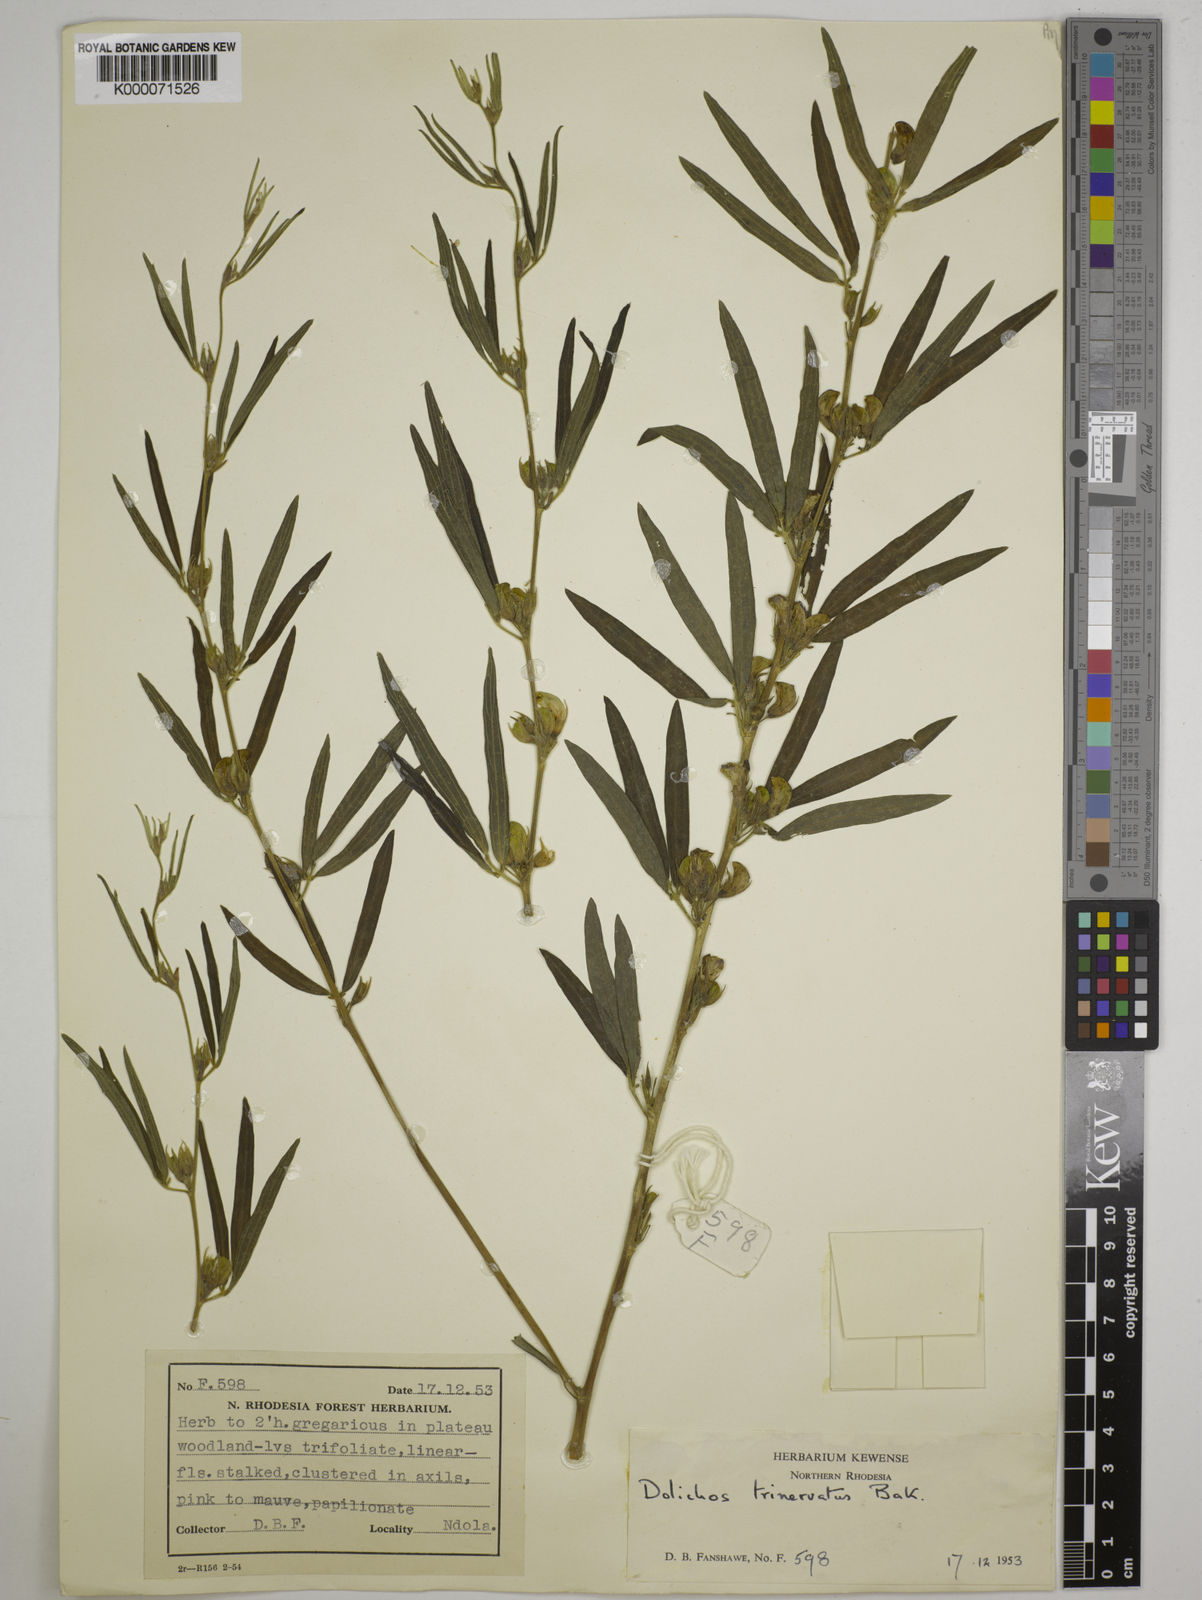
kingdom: Plantae
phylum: Tracheophyta
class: Magnoliopsida
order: Fabales
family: Fabaceae
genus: Dolichos
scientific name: Dolichos trinervatus
